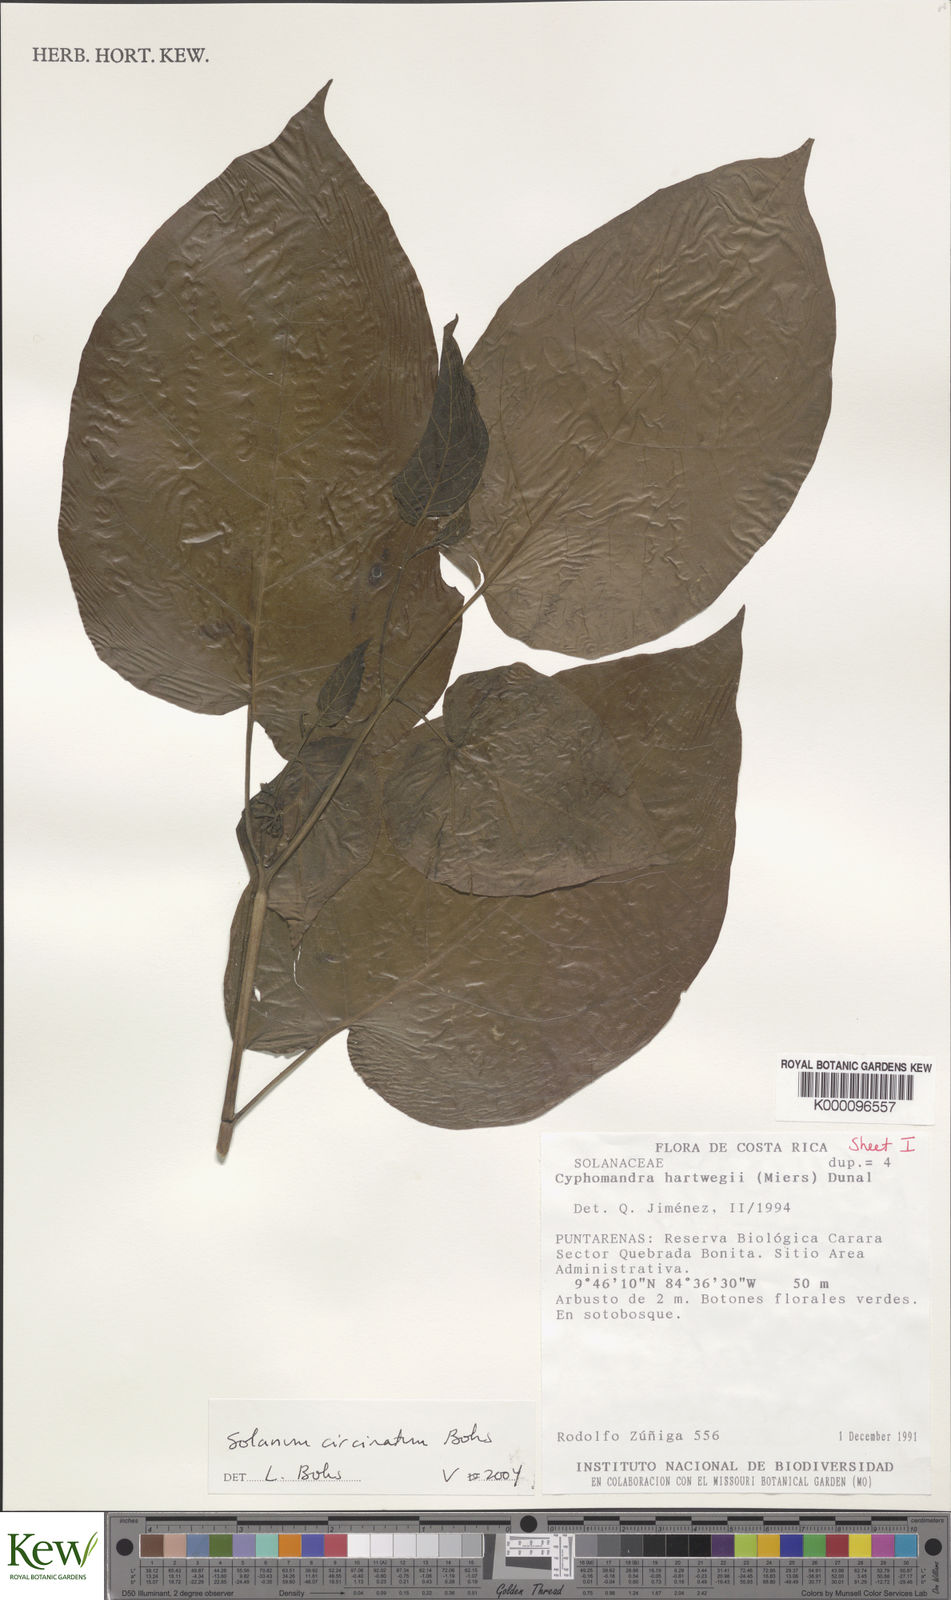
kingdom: Plantae
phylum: Tracheophyta
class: Magnoliopsida
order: Solanales
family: Solanaceae
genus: Solanum
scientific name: Solanum splendens
